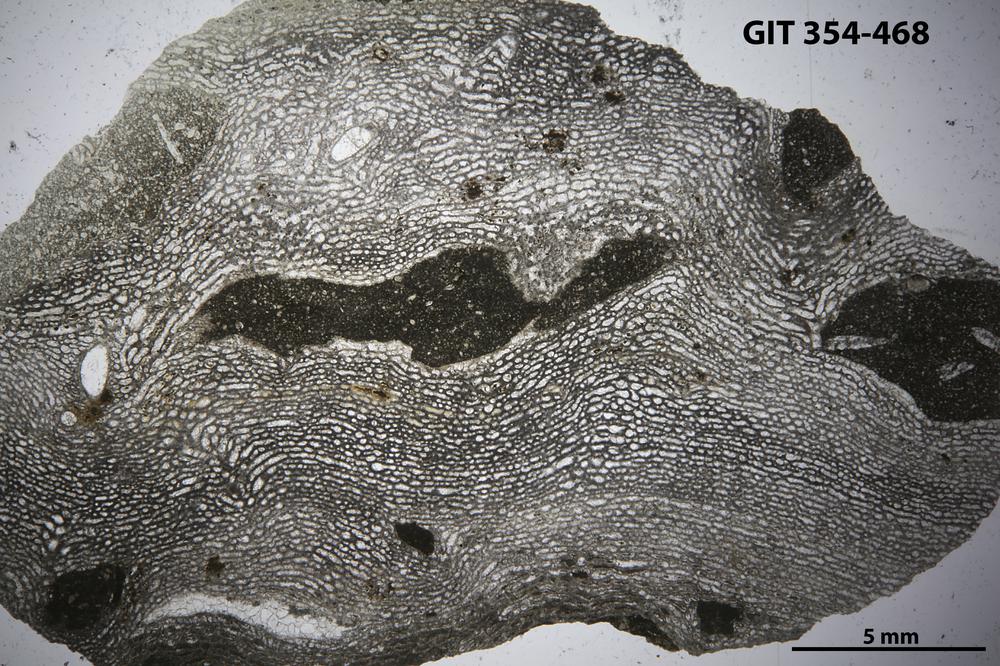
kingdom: Animalia
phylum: Porifera
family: Clathrodictyidae
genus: Clathrodictyon
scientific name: Clathrodictyon Stromatopora variolaris
